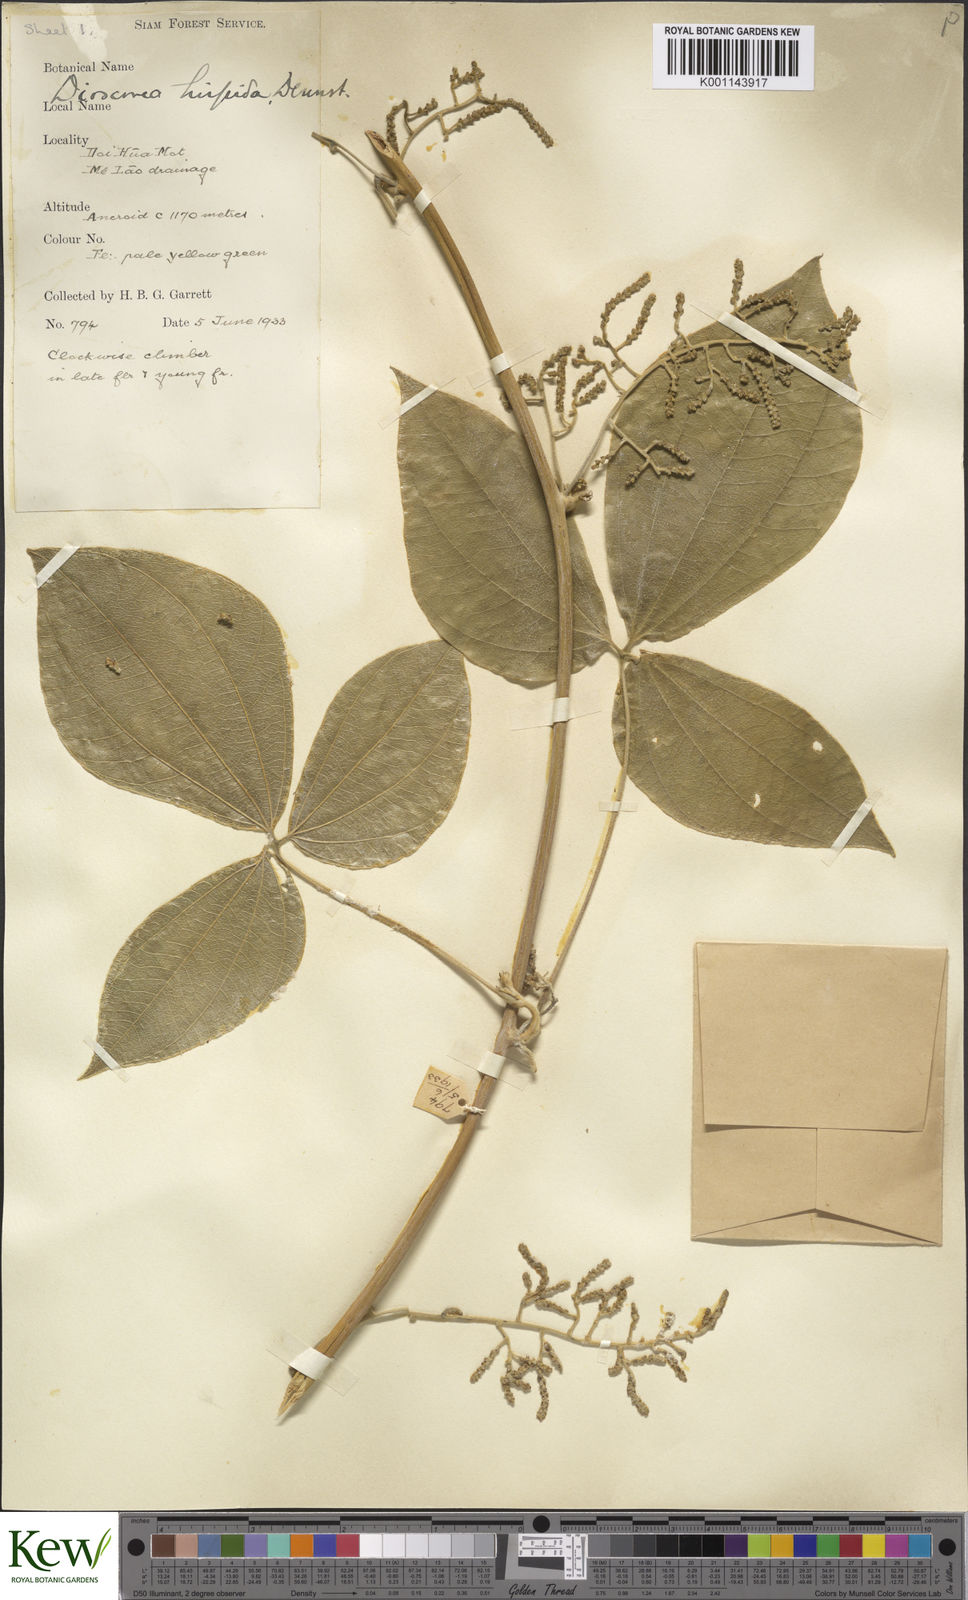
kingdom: Plantae
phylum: Tracheophyta
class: Liliopsida
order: Dioscoreales
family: Dioscoreaceae
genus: Dioscorea
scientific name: Dioscorea hispida
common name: Asiatic bitter yam
